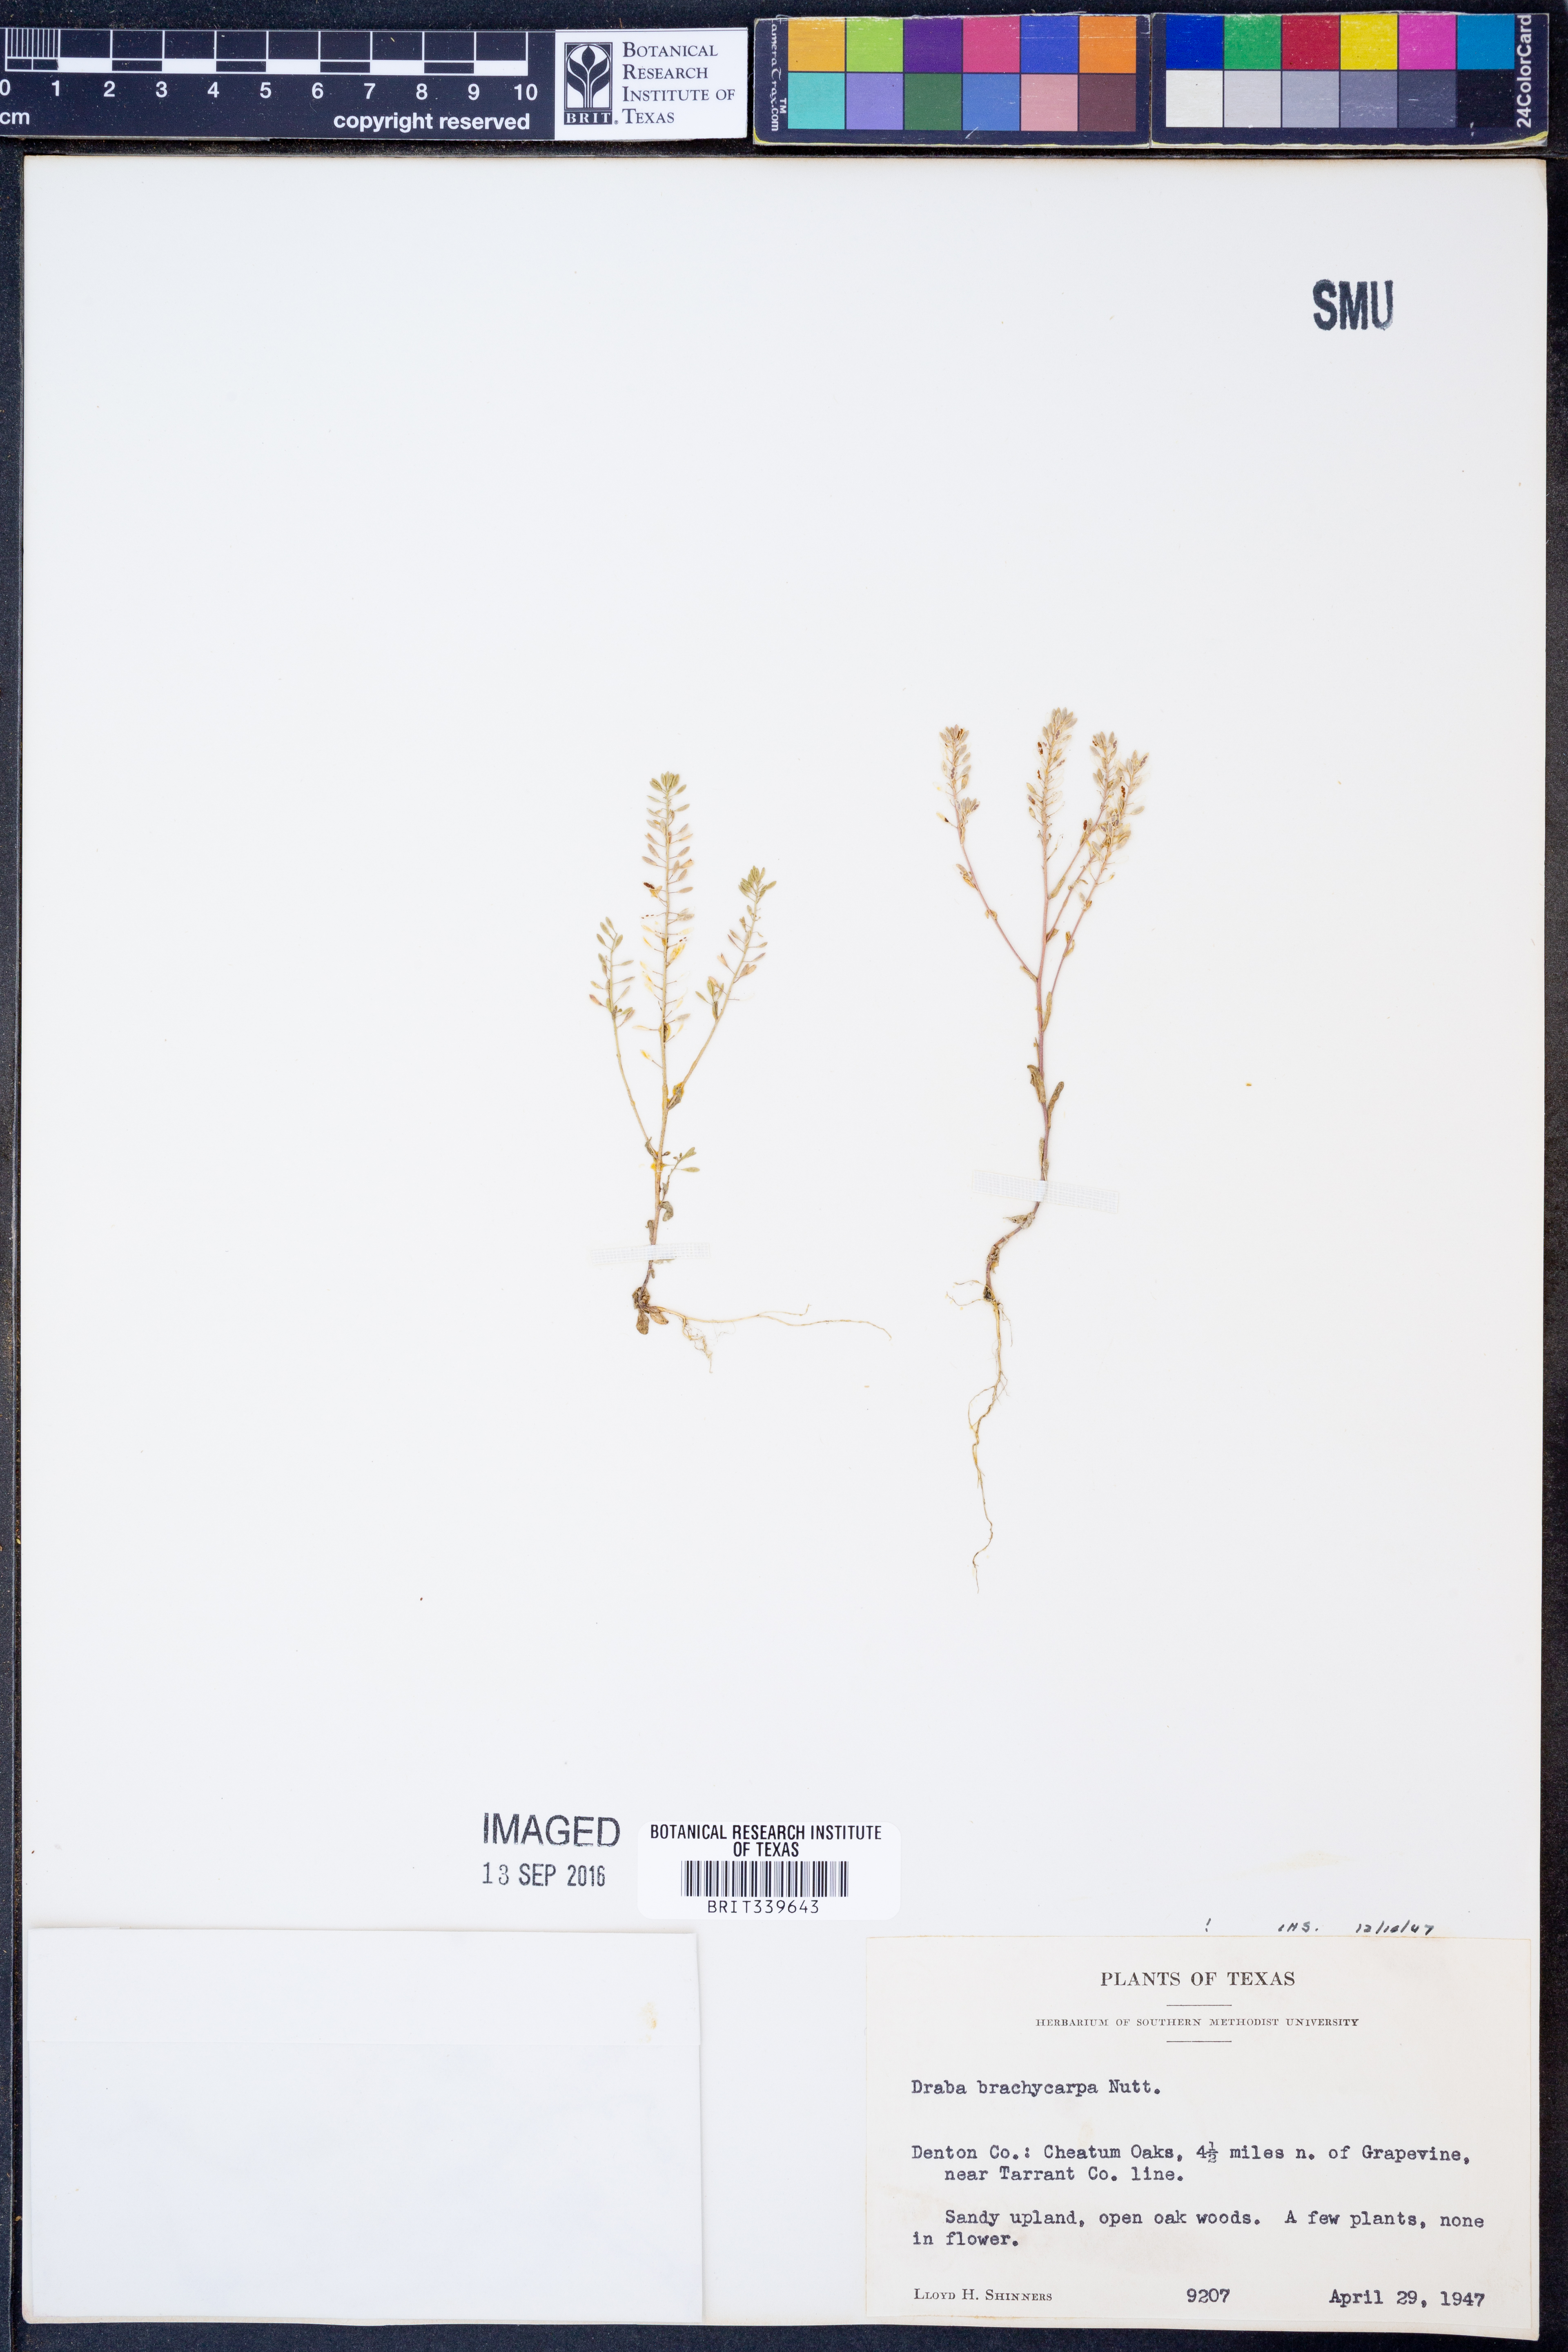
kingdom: Plantae
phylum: Tracheophyta
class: Magnoliopsida
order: Brassicales
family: Brassicaceae
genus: Abdra
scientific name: Abdra brachycarpa
